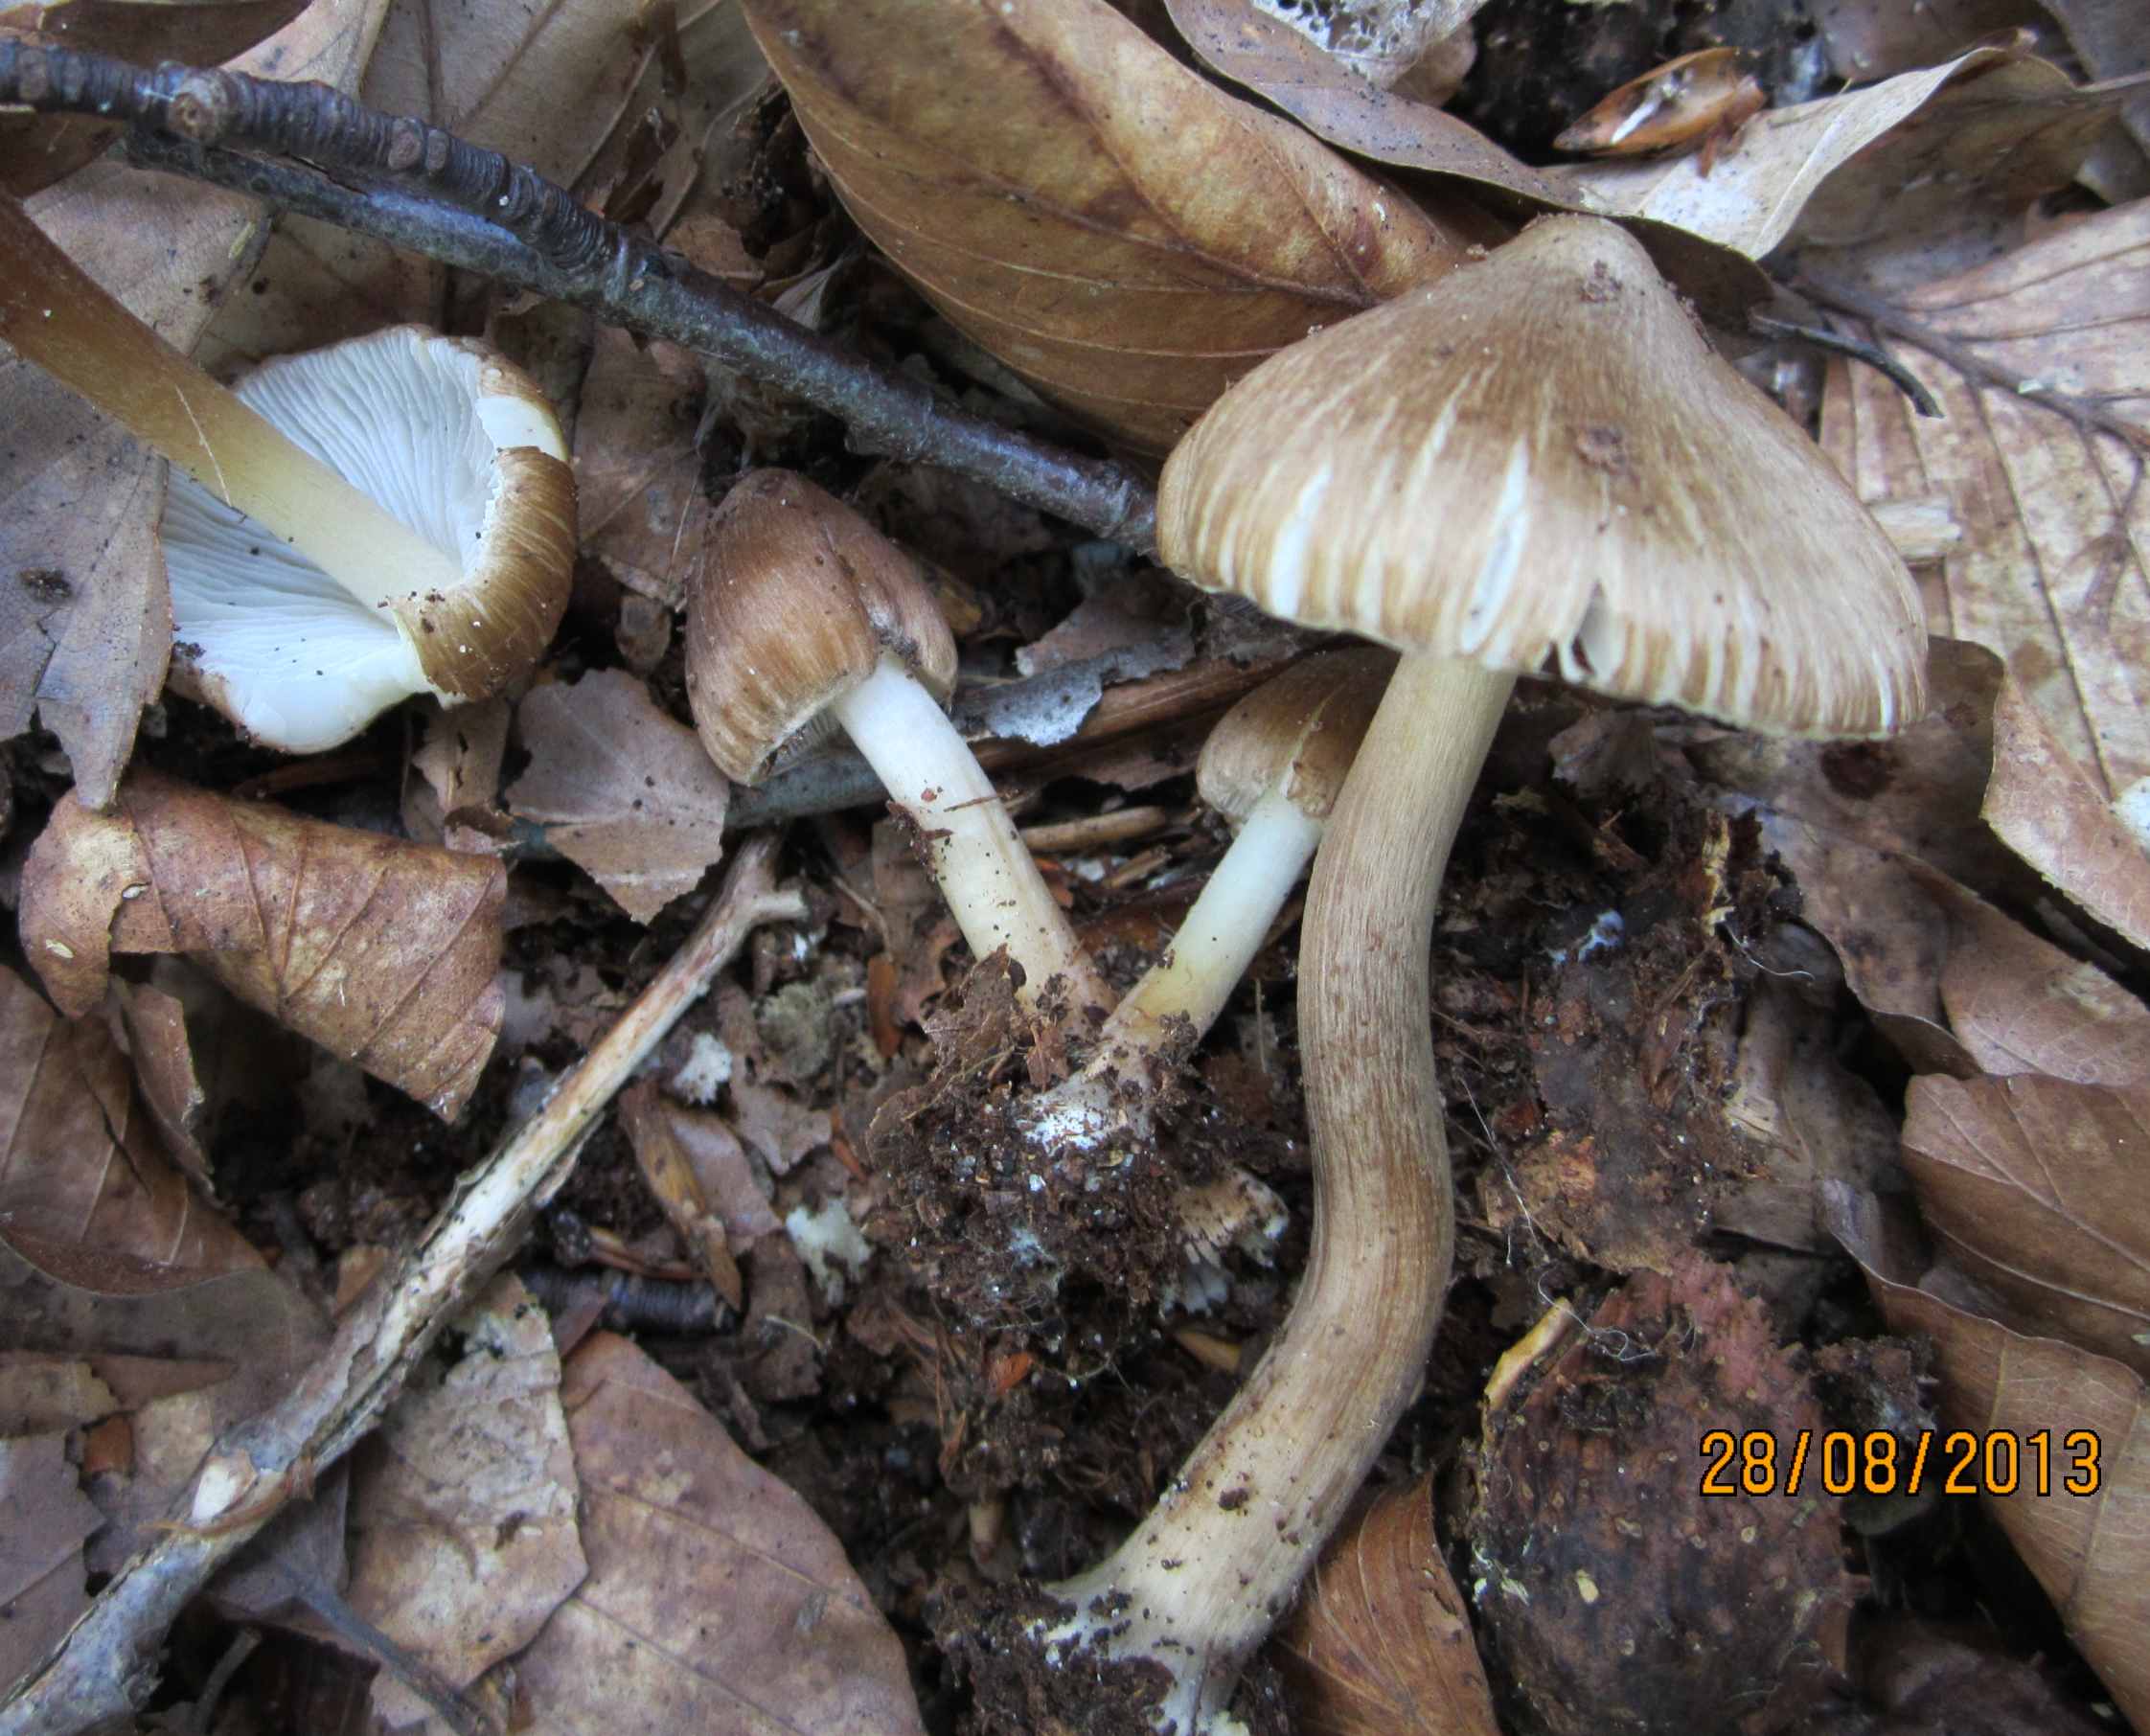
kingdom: Fungi
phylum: Basidiomycota
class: Agaricomycetes
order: Agaricales
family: Inocybaceae
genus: Inocybe
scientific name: Inocybe napipes
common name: roeknoldet trævlhat
